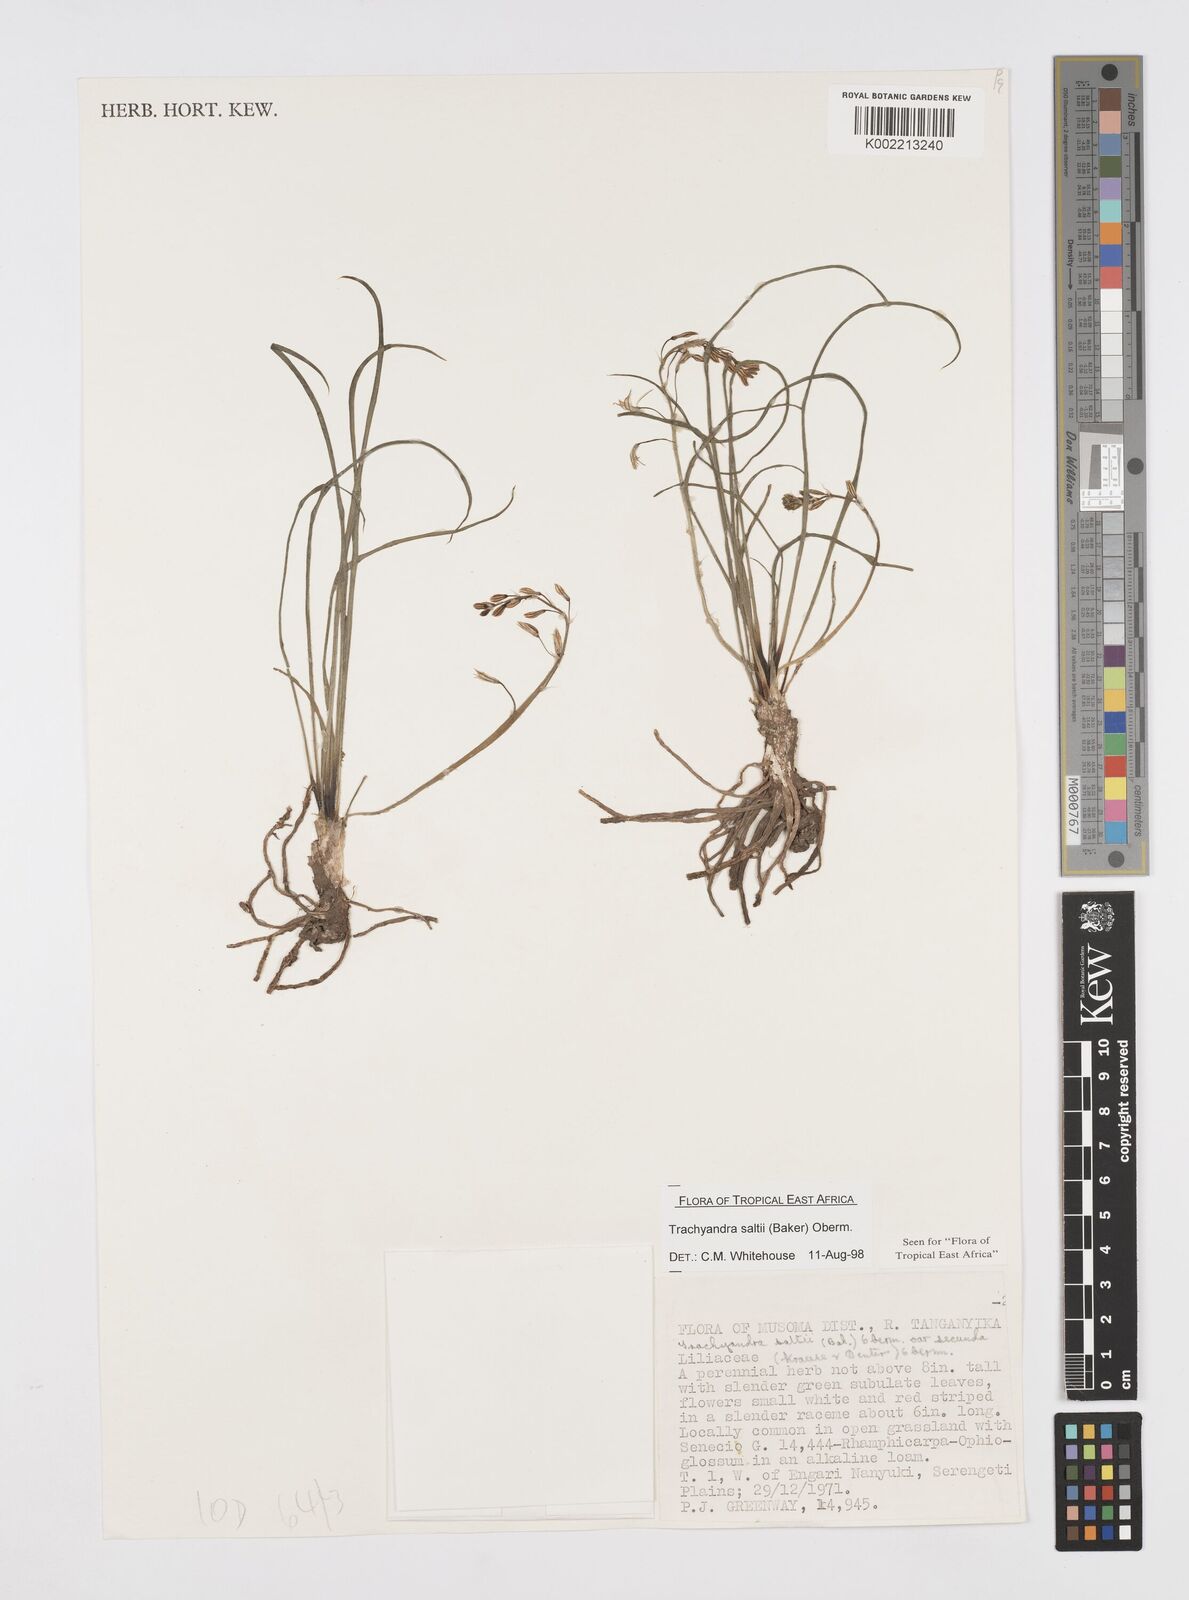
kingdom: Plantae
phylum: Tracheophyta
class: Liliopsida
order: Asparagales
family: Asphodelaceae
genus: Trachyandra
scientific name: Trachyandra saltii
